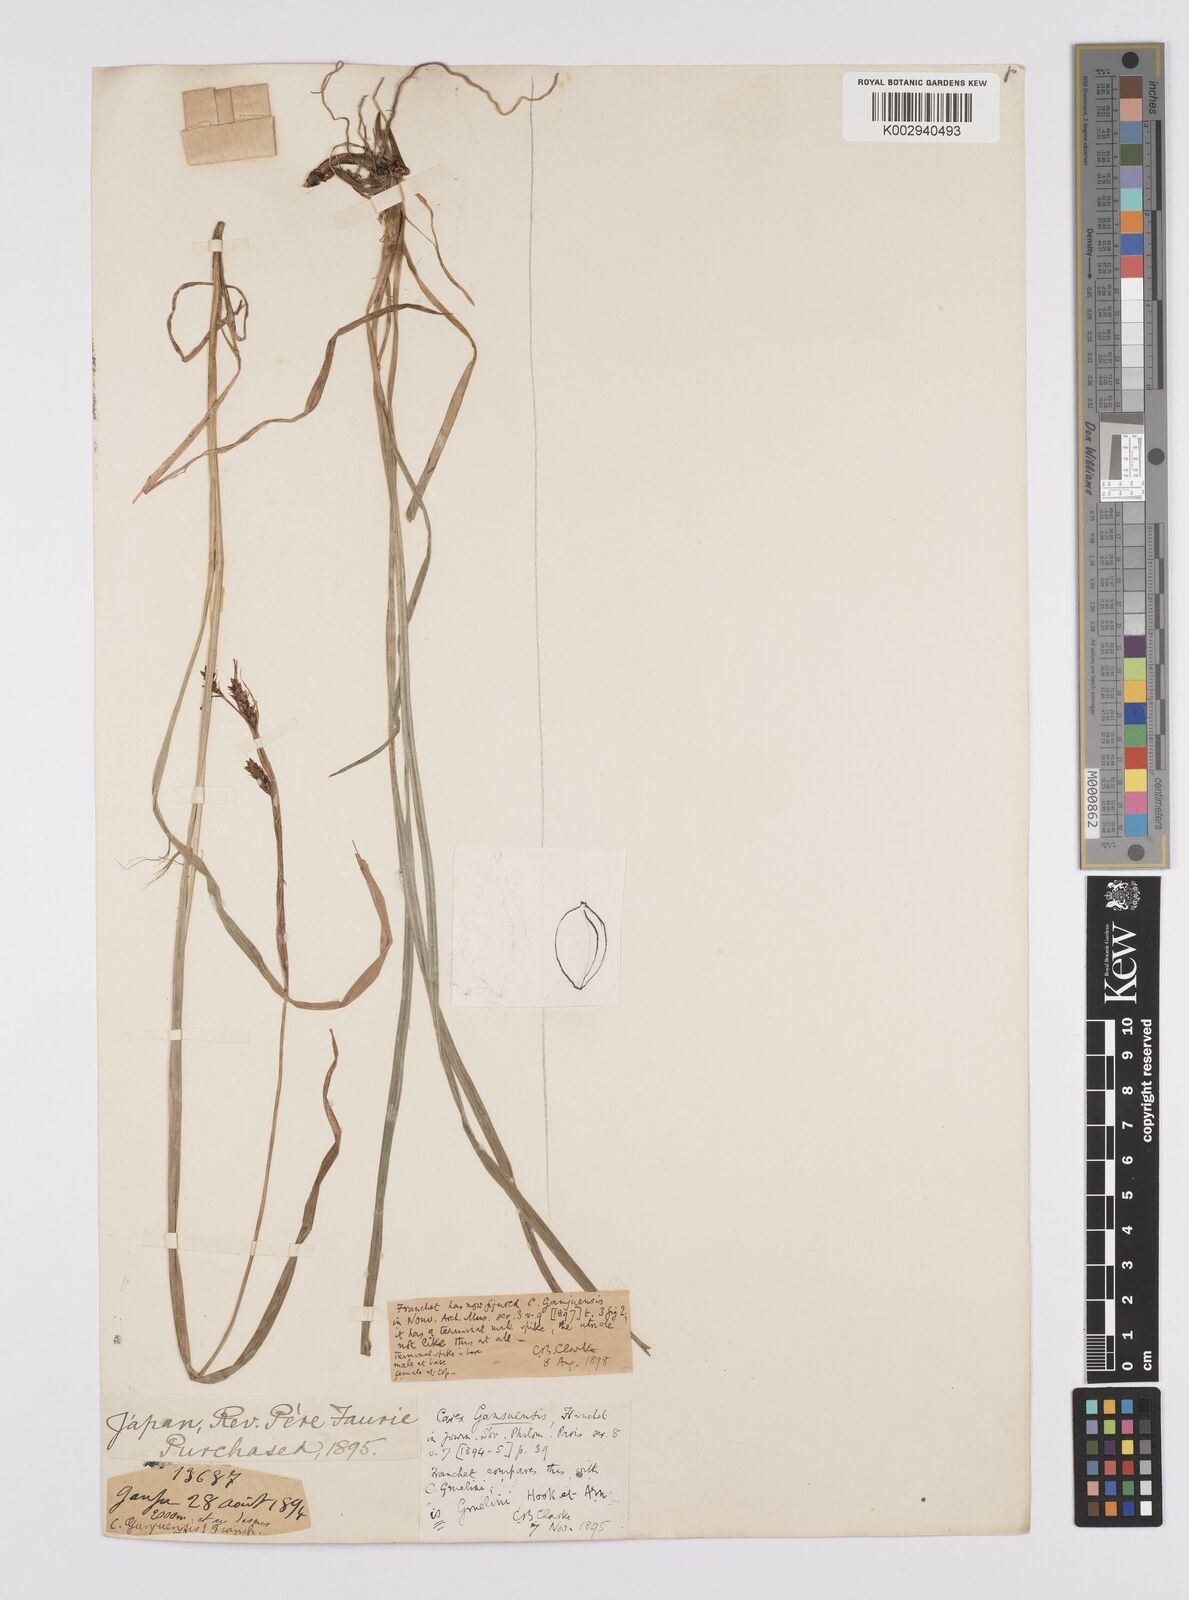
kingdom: Plantae
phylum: Tracheophyta
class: Liliopsida
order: Poales
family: Cyperaceae
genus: Carex
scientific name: Carex gmelinii
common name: Gmelin's sedge
